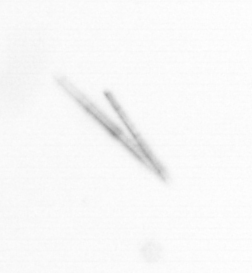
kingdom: Chromista
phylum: Ochrophyta
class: Bacillariophyceae
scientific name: Bacillariophyceae
